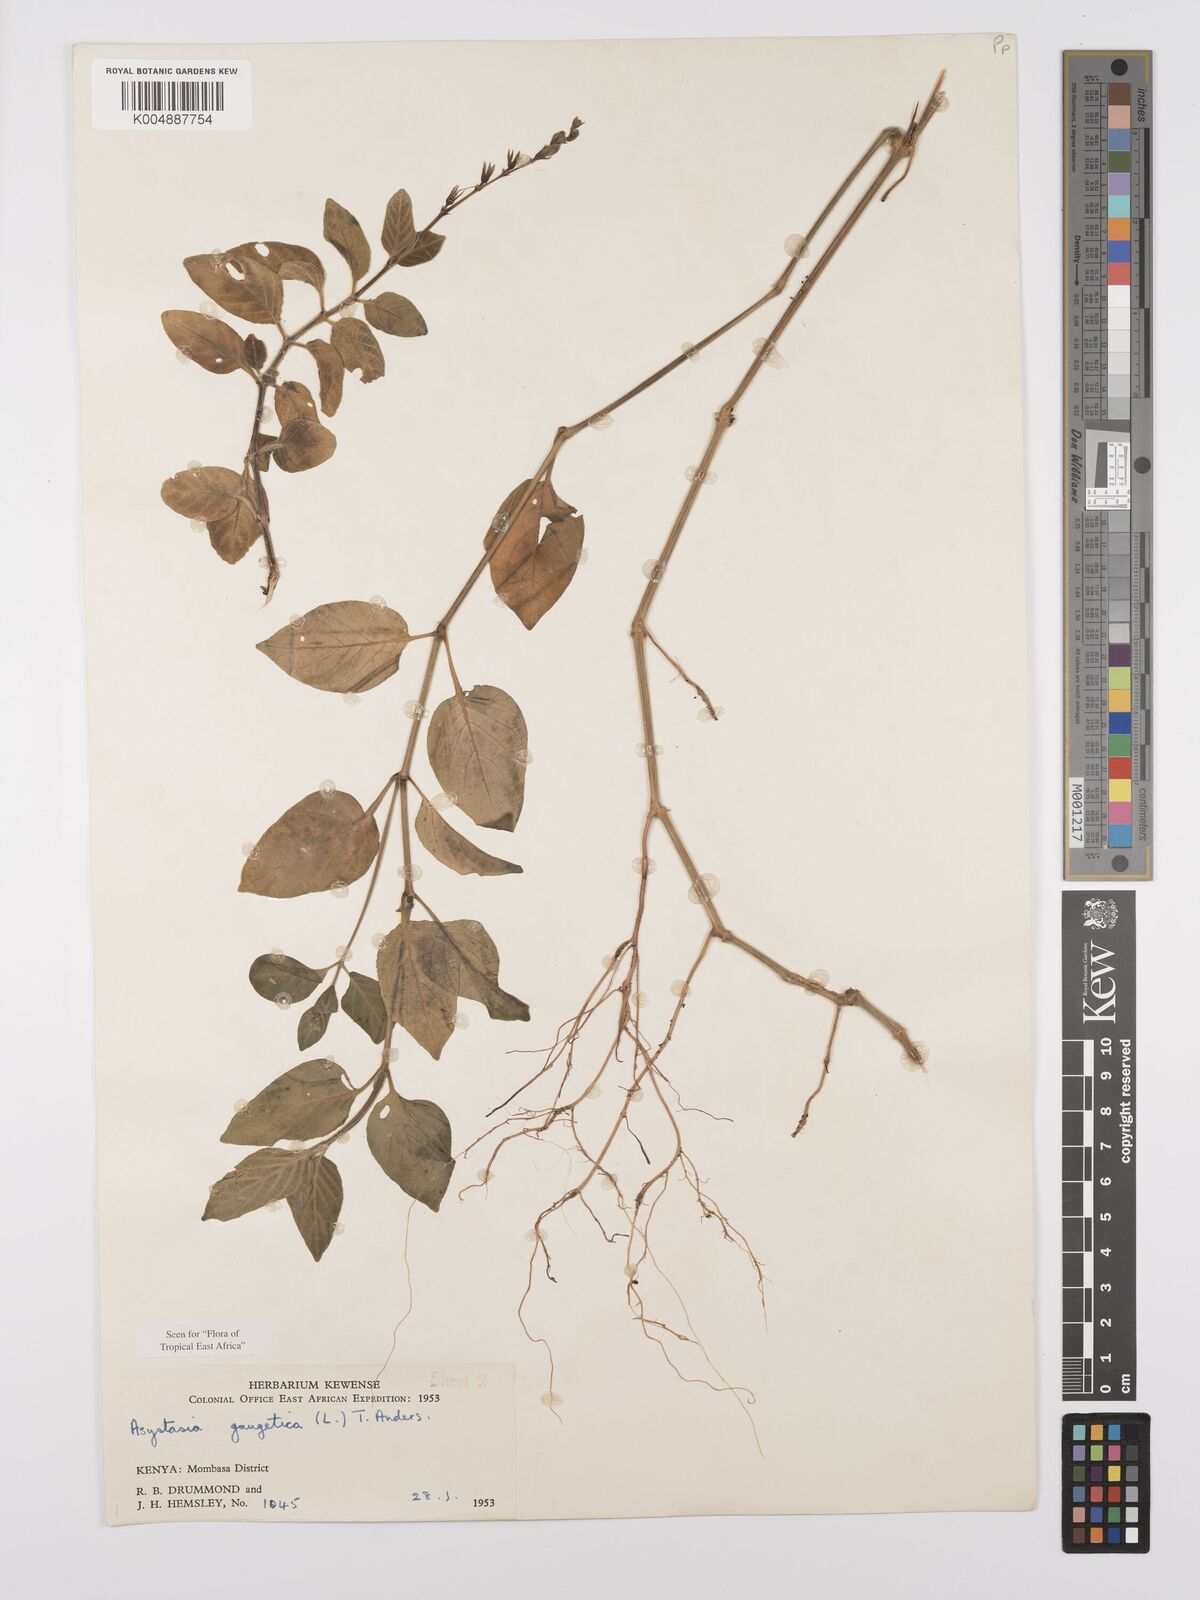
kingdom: Plantae
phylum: Tracheophyta
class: Magnoliopsida
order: Lamiales
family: Acanthaceae
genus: Asystasia
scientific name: Asystasia gangetica
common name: Chinese violet
